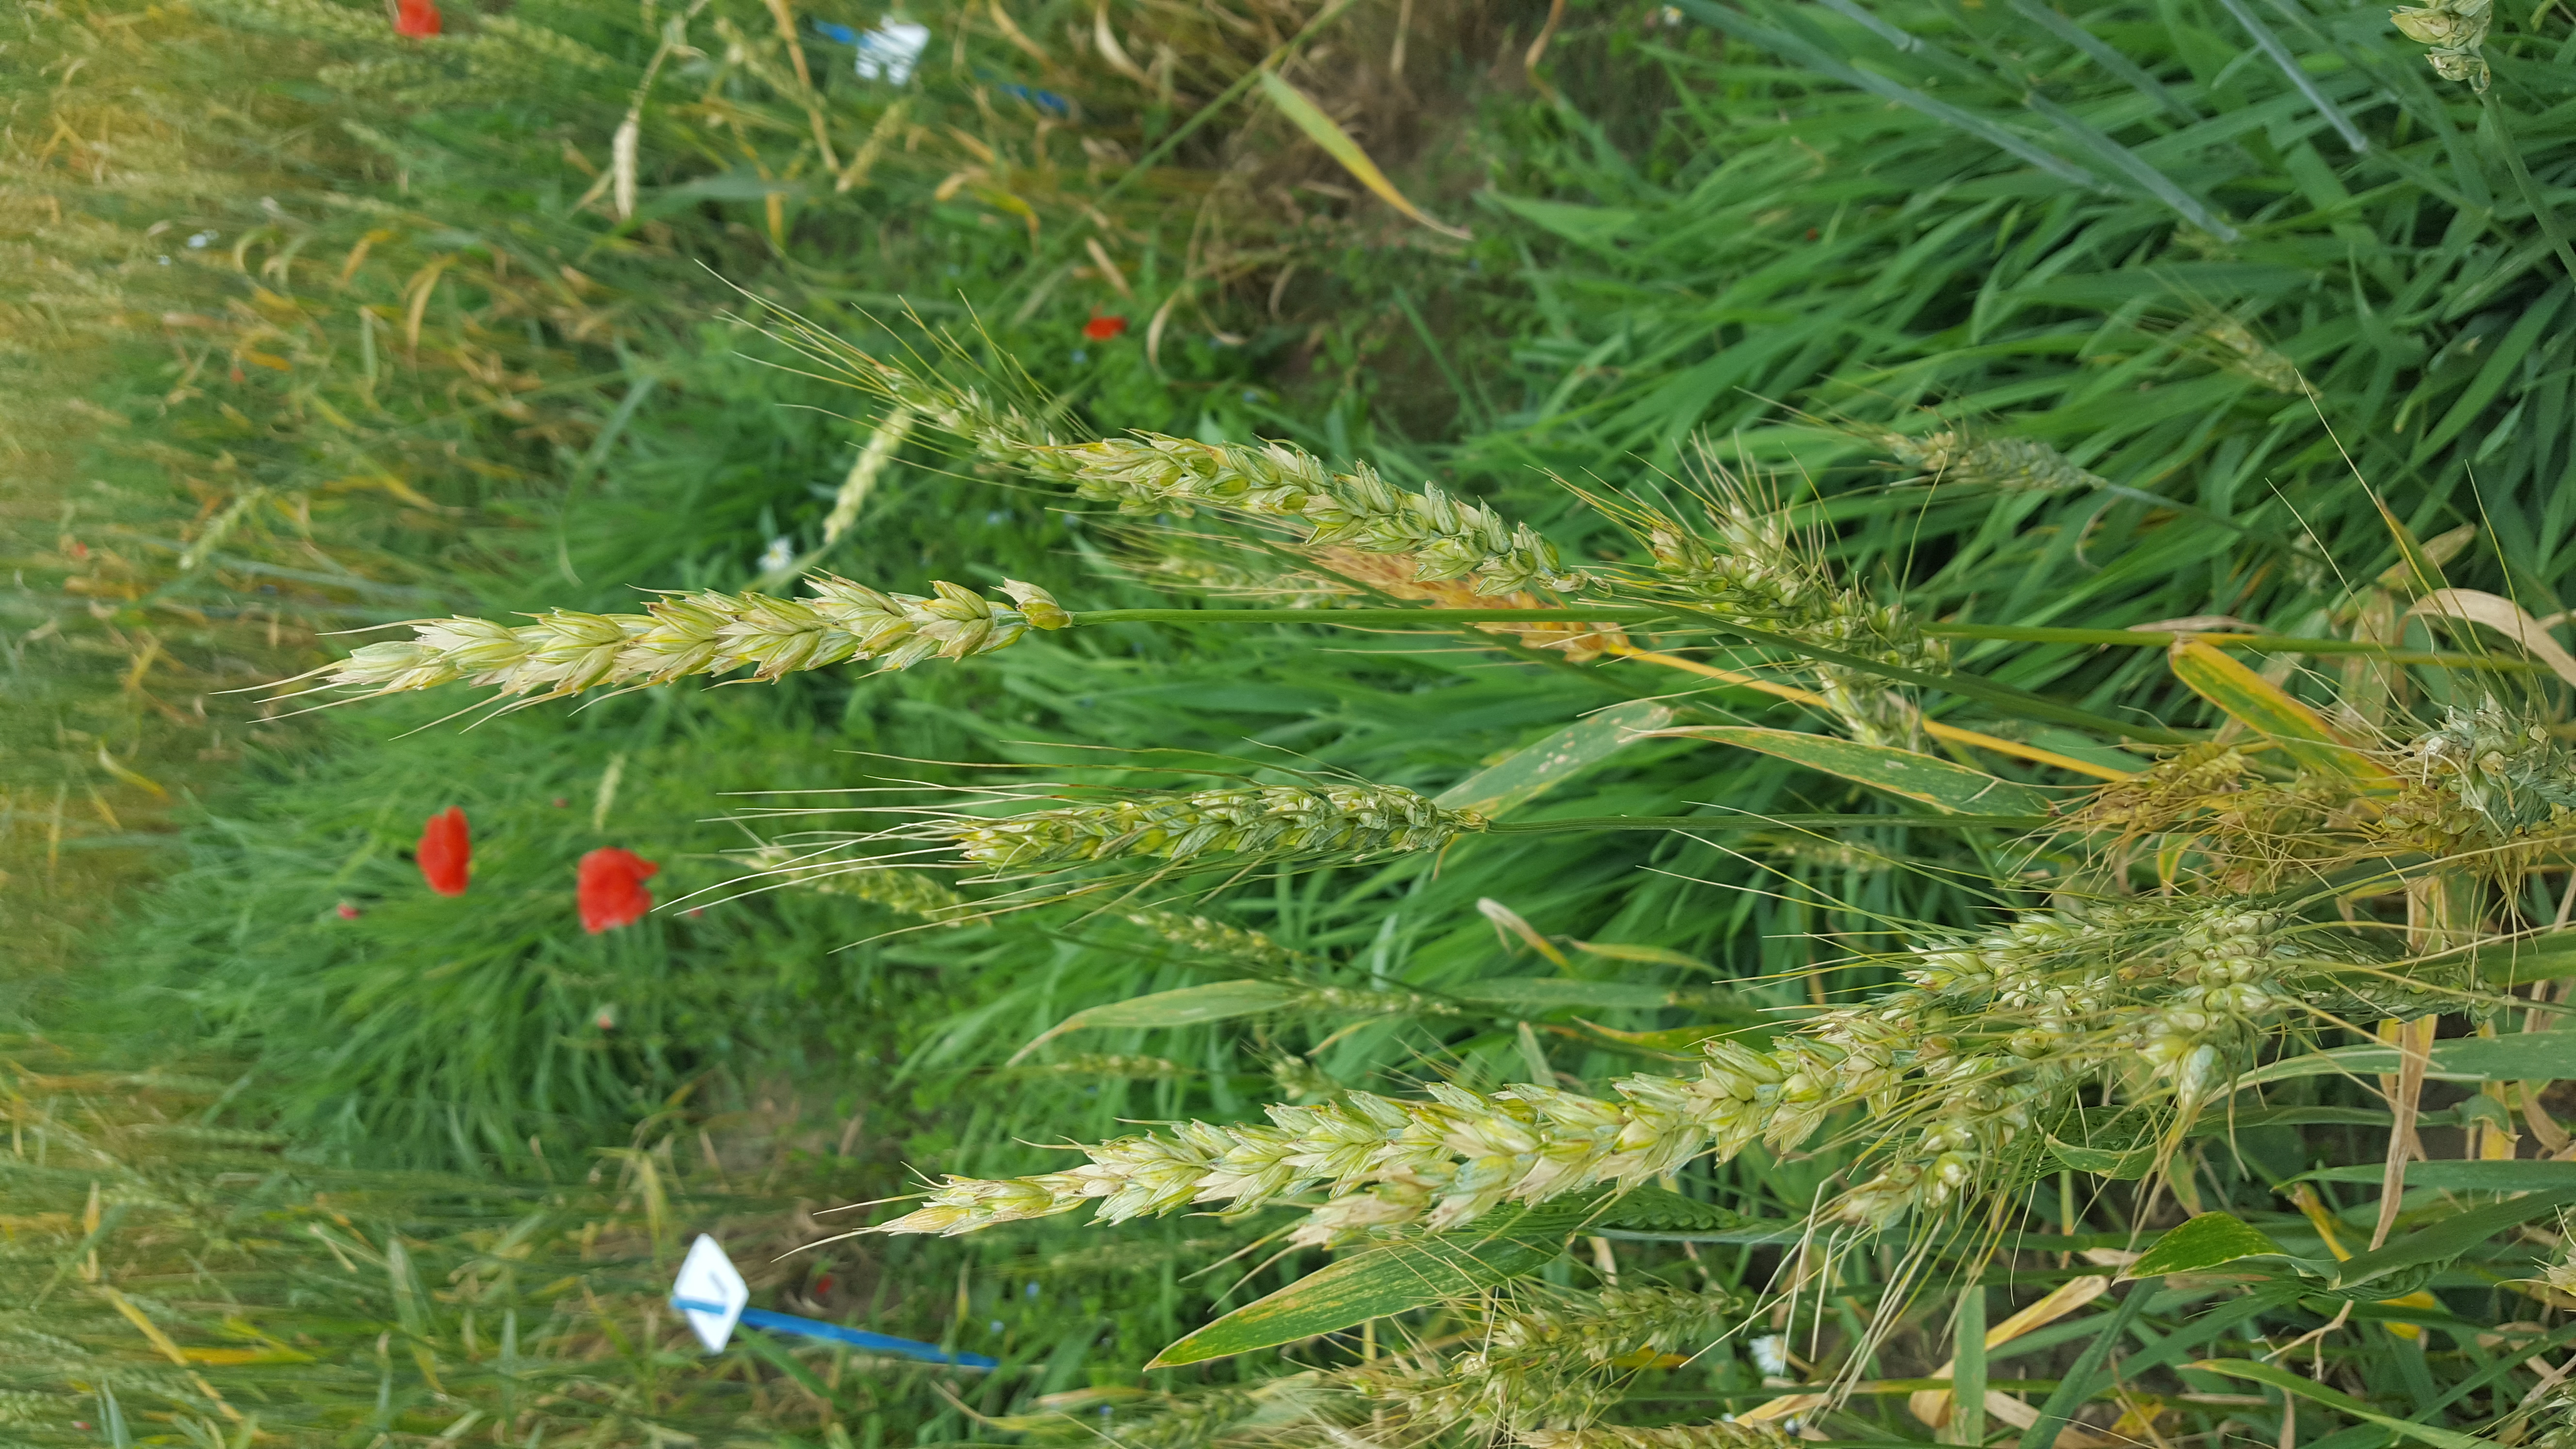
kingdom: Plantae
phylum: Tracheophyta
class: Liliopsida
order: Poales
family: Poaceae
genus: Triticum
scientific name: Triticum aestivum
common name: Common wheat
